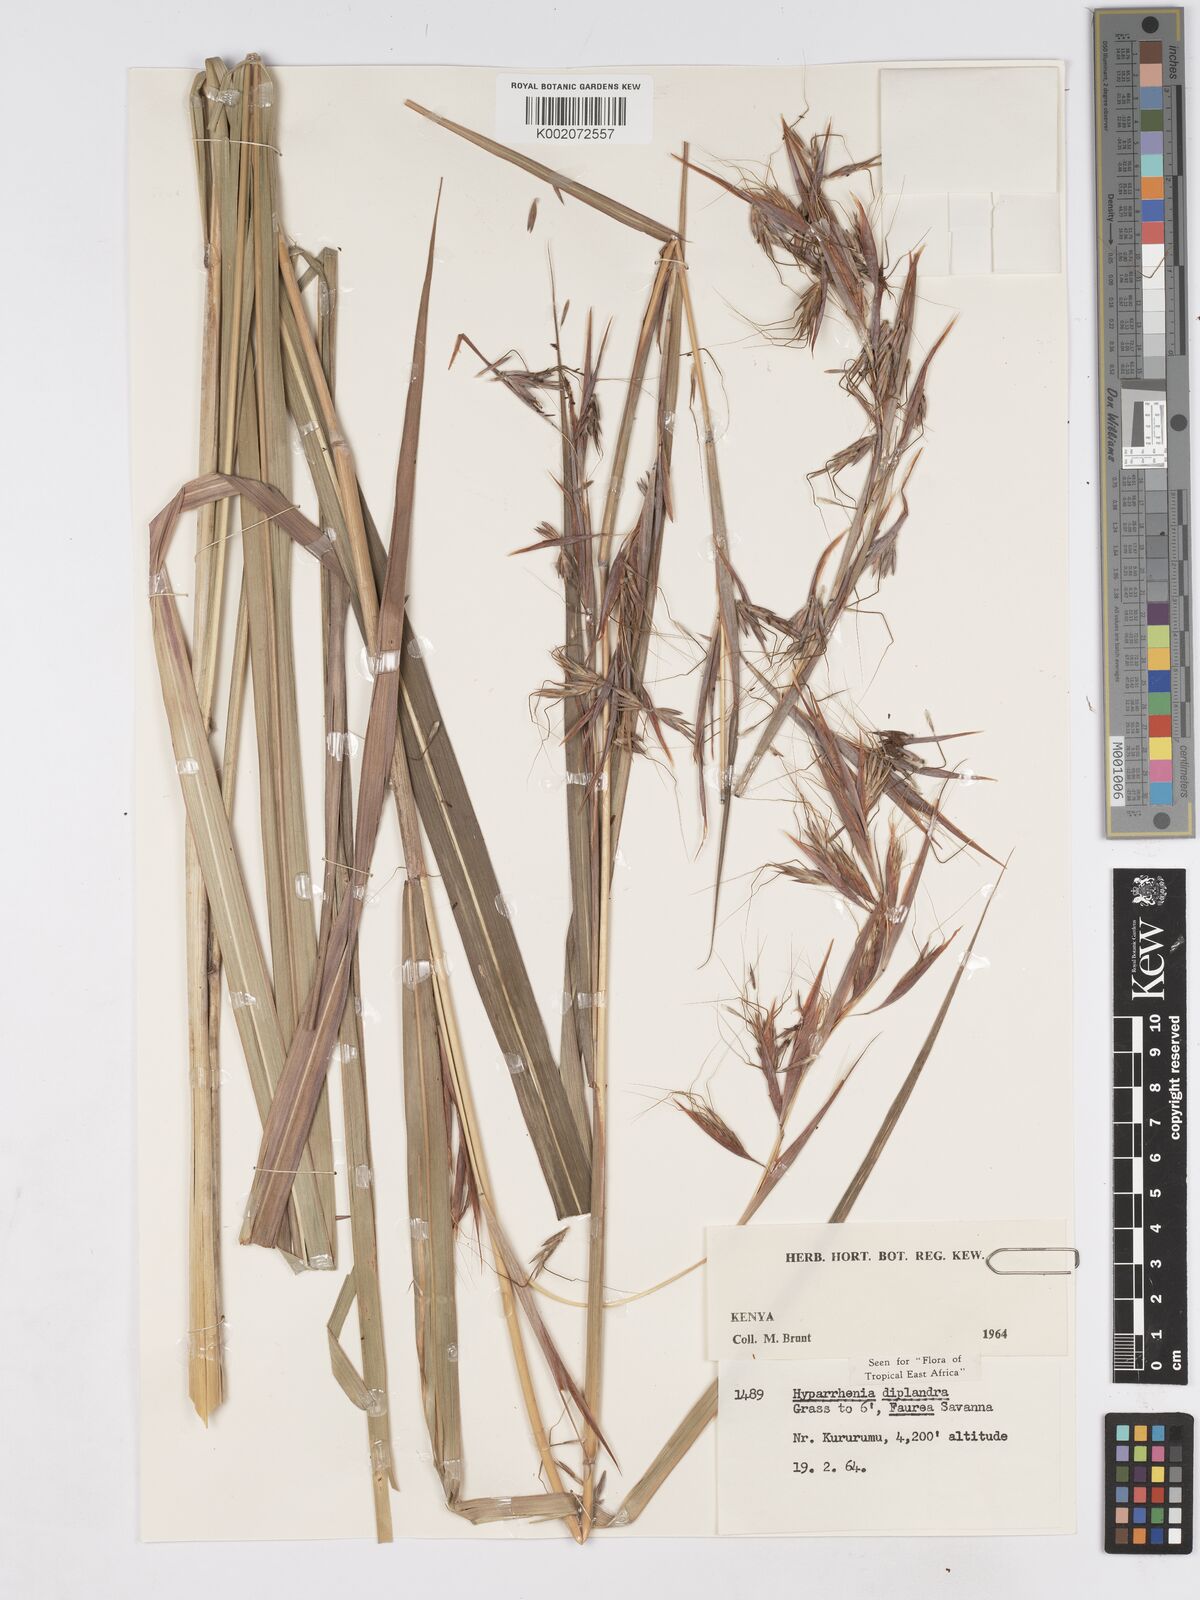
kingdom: Plantae
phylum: Tracheophyta
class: Liliopsida
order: Poales
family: Poaceae
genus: Hyparrhenia
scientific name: Hyparrhenia diplandra
